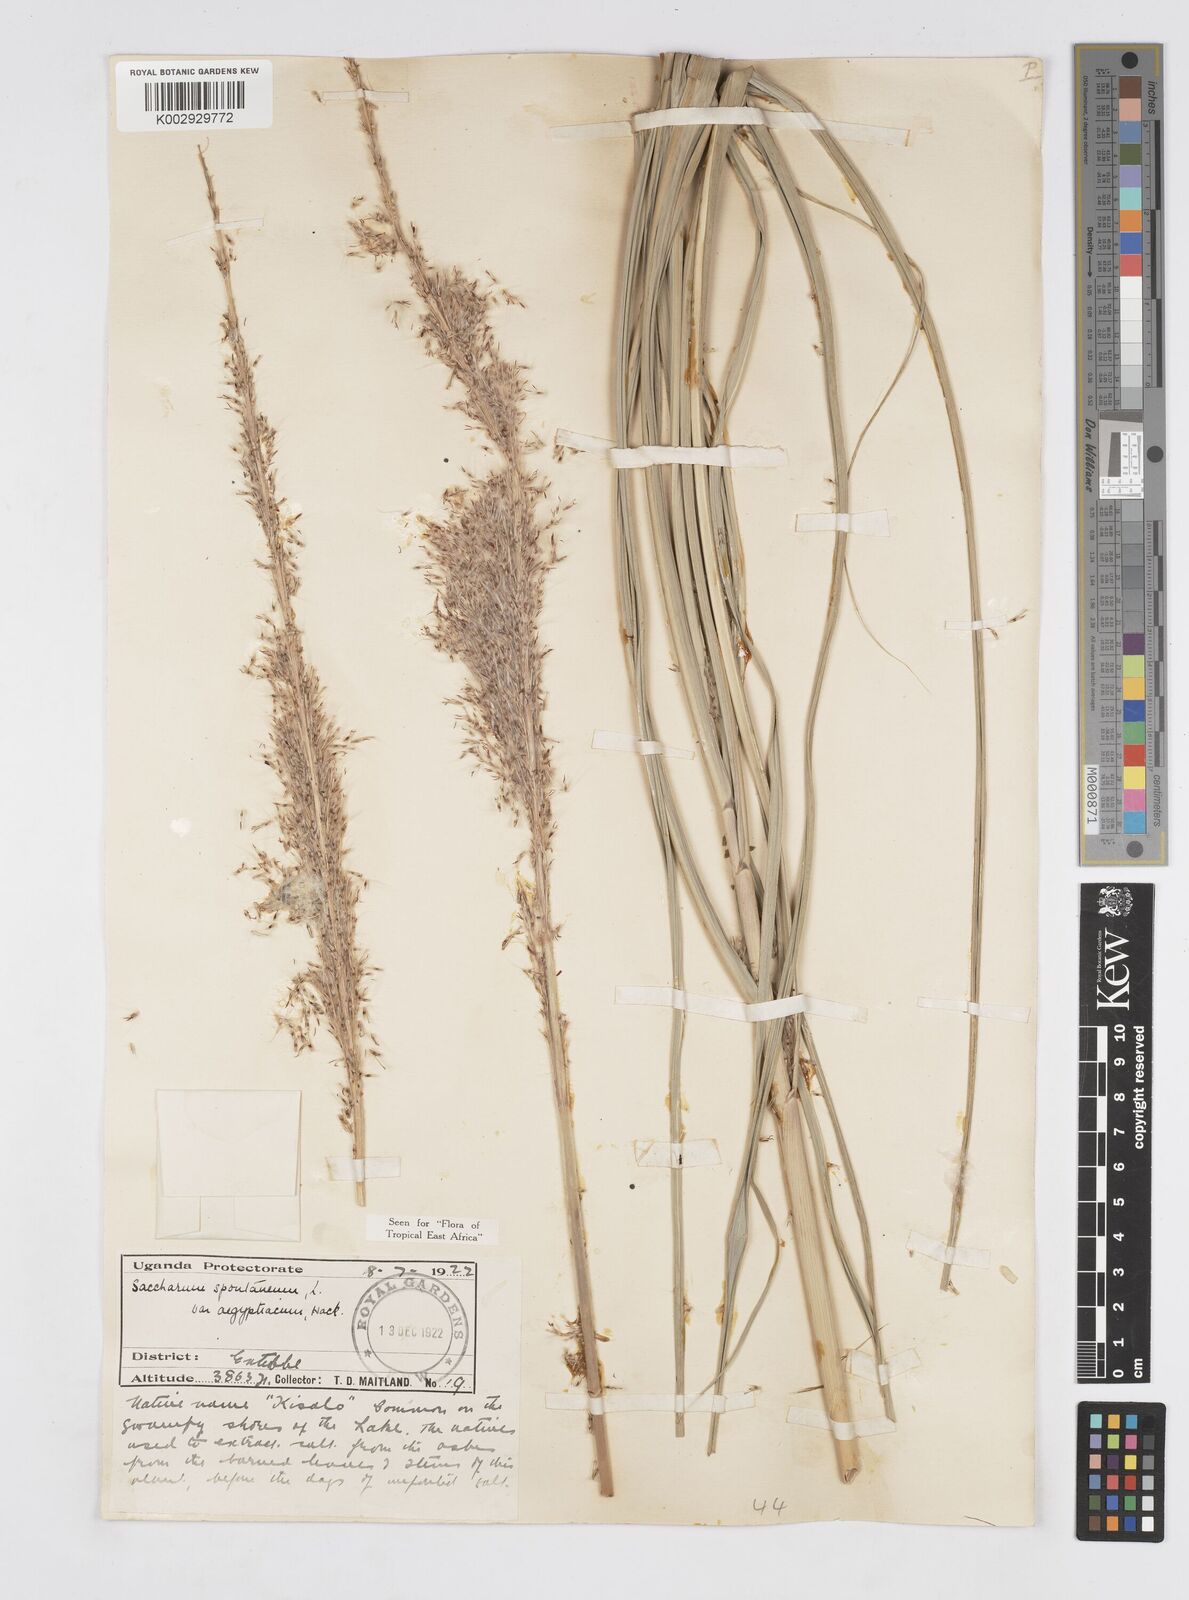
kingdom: Plantae
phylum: Tracheophyta
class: Liliopsida
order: Poales
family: Poaceae
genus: Saccharum
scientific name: Saccharum spontaneum
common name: Wild sugarcane
